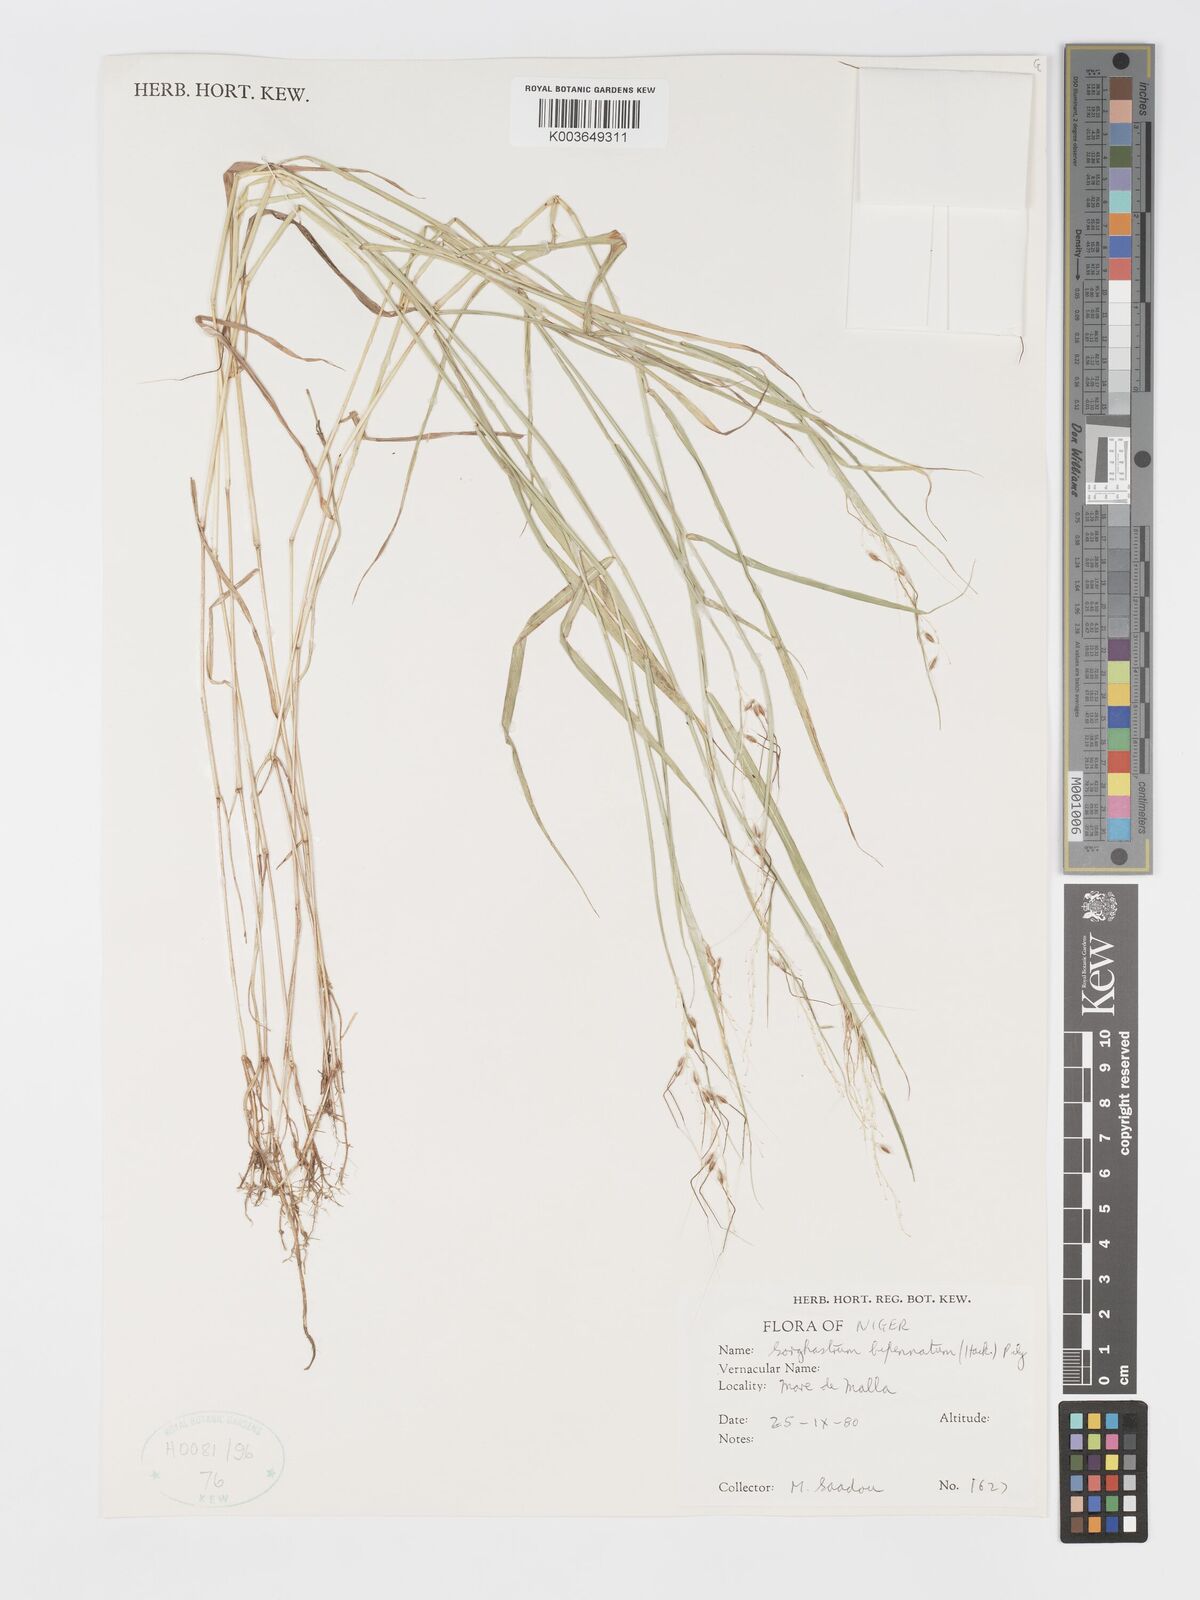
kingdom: Plantae
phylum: Tracheophyta
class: Liliopsida
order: Poales
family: Poaceae
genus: Sorghastrum
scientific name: Sorghastrum incompletum
